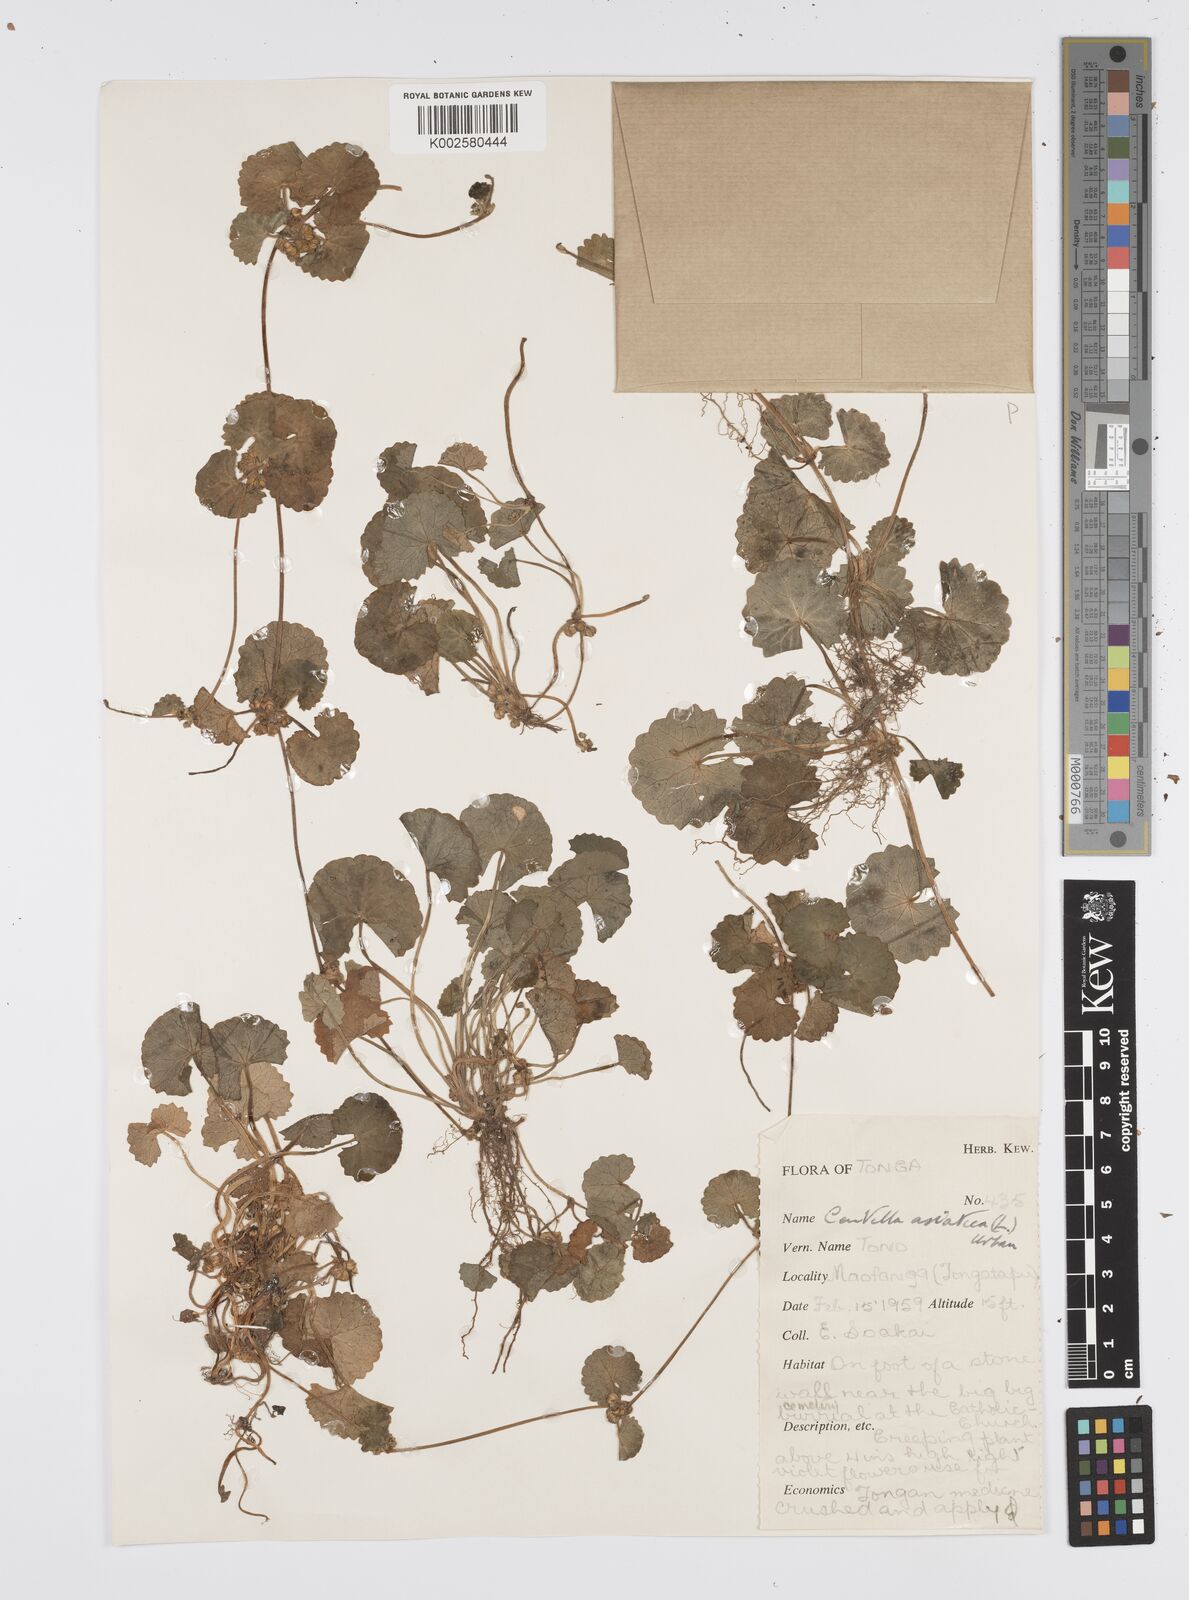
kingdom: Plantae
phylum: Tracheophyta
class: Magnoliopsida
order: Apiales
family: Apiaceae
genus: Centella
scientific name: Centella asiatica
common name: Spadeleaf
